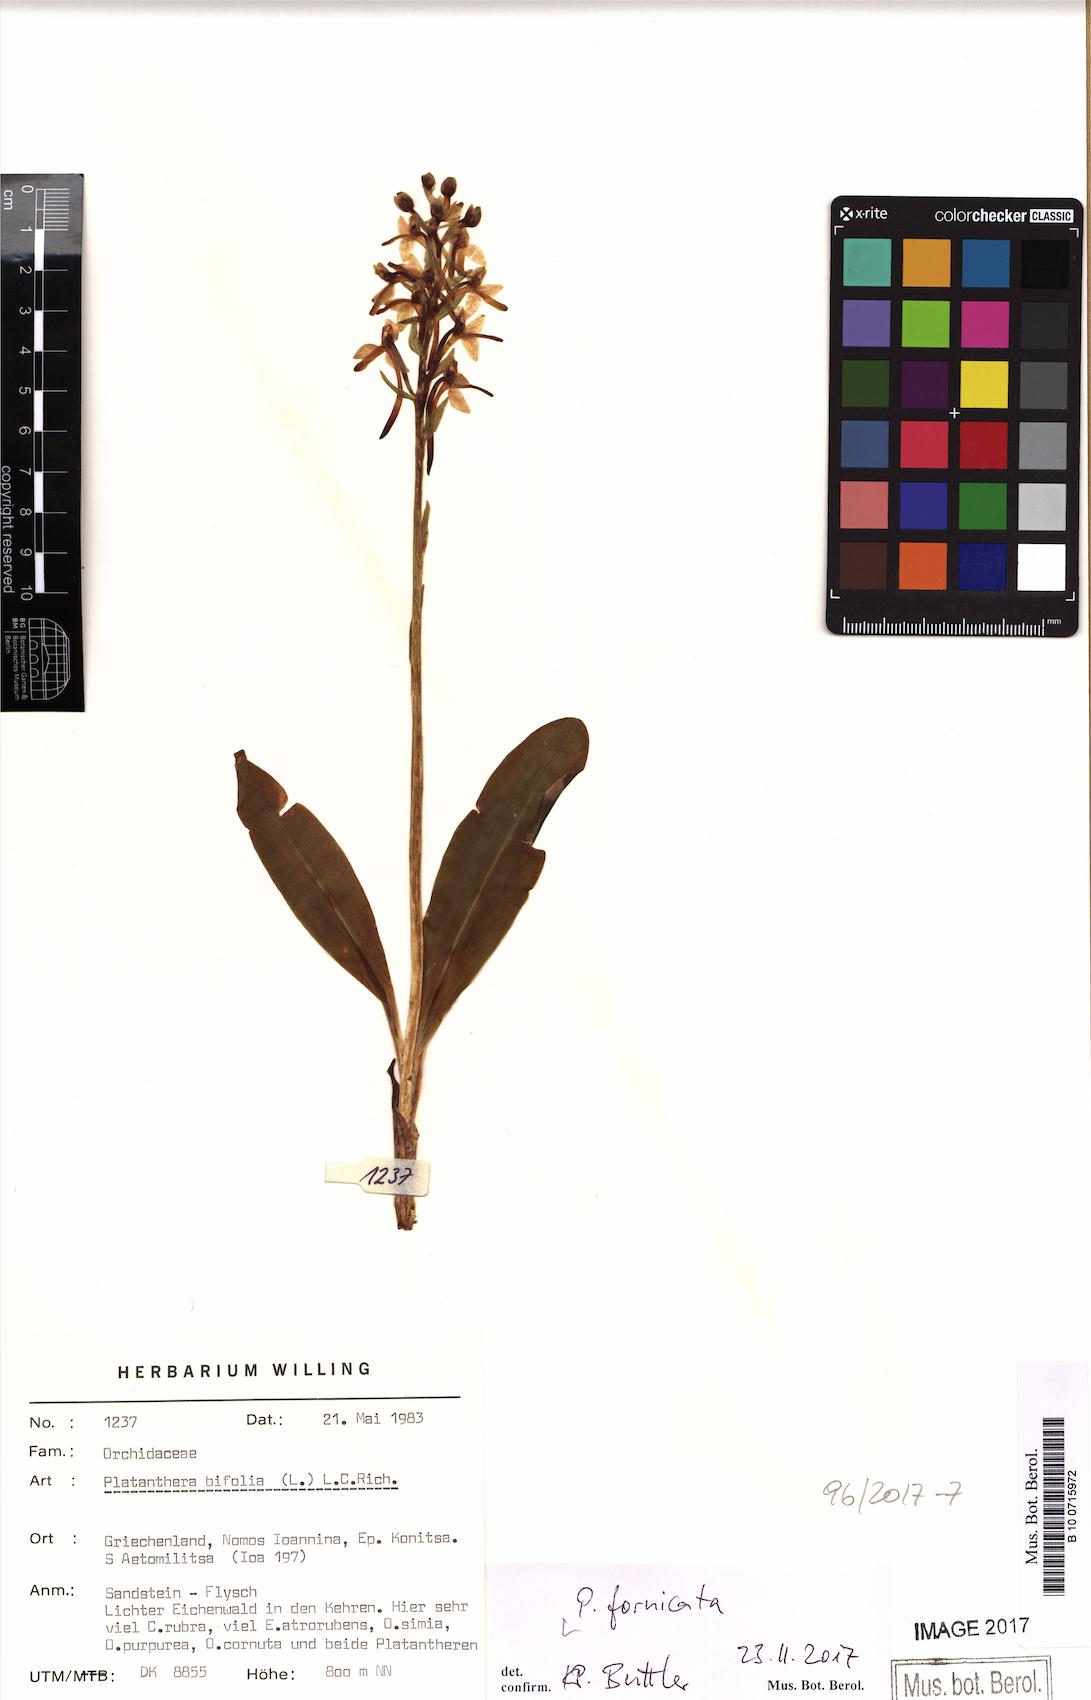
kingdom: Plantae
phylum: Tracheophyta
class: Liliopsida
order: Asparagales
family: Orchidaceae
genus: Platanthera
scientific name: Platanthera bifolia
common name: Lesser butterfly-orchid
